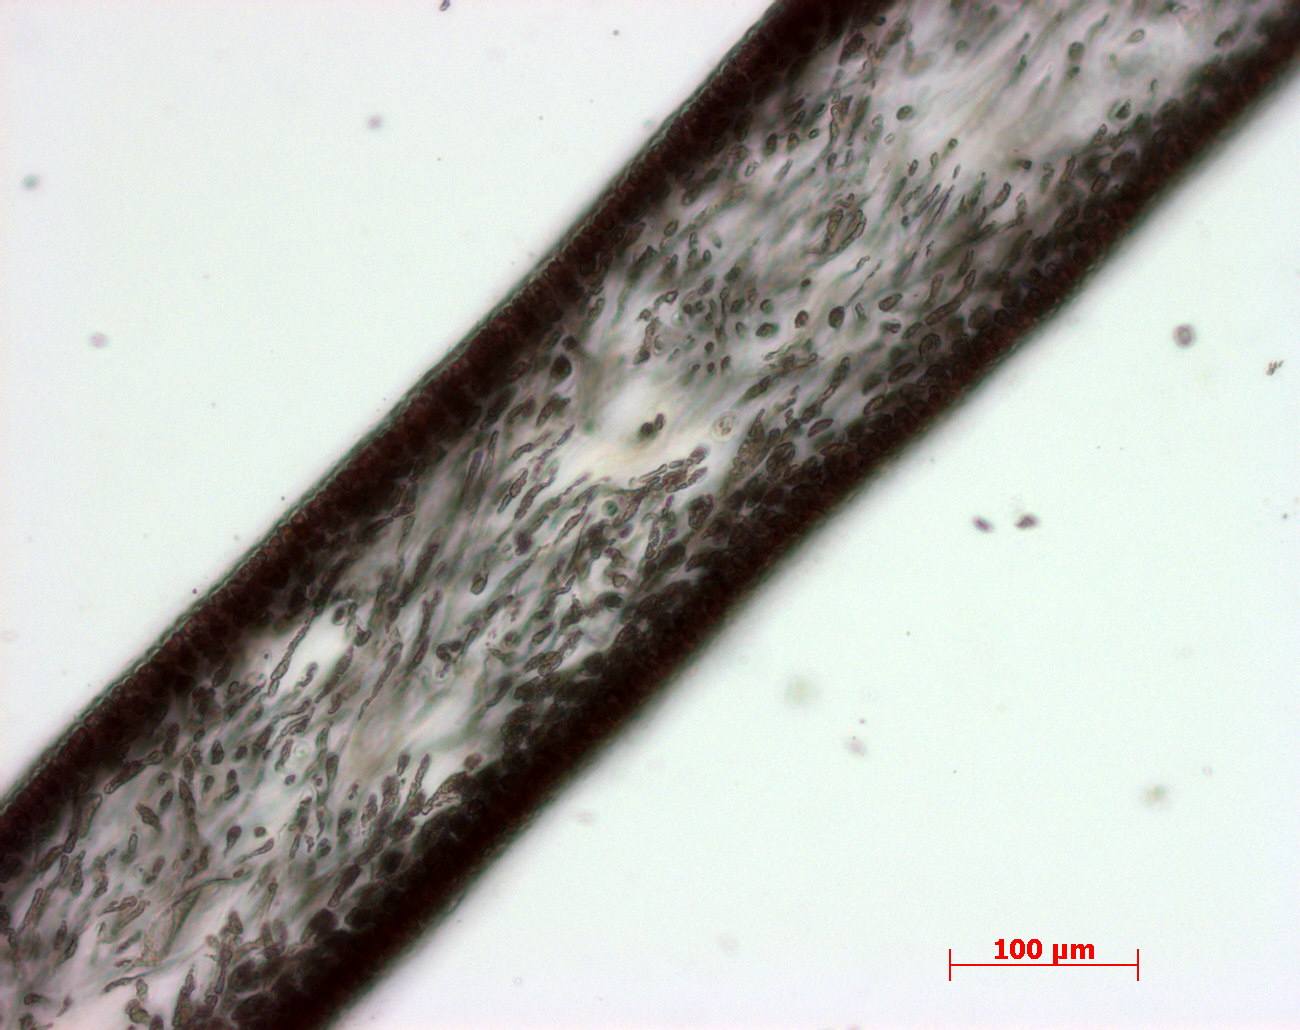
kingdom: Plantae
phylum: Rhodophyta
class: Florideophyceae
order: Halymeniales
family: Halymeniaceae
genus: Cryptonemia
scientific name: Cryptonemia latissima
